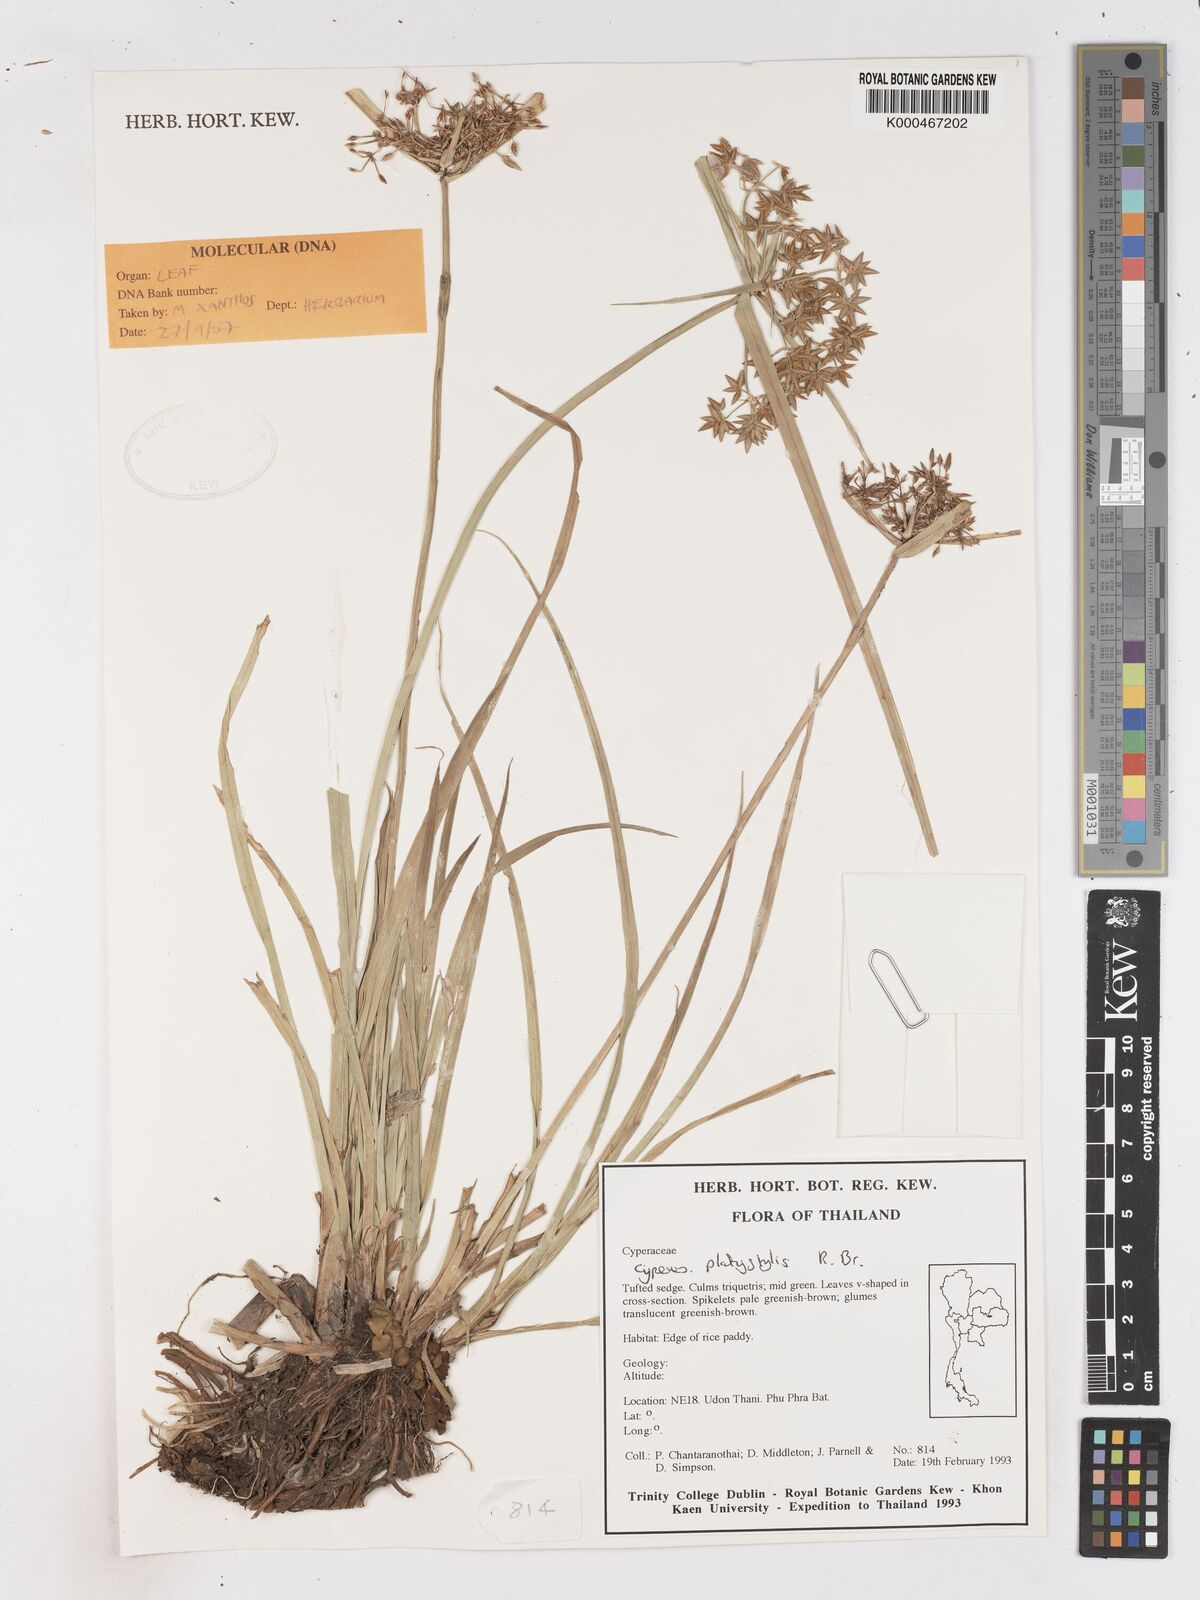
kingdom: Plantae
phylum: Tracheophyta
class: Liliopsida
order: Poales
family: Cyperaceae
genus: Cyperus
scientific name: Cyperus platystylis
